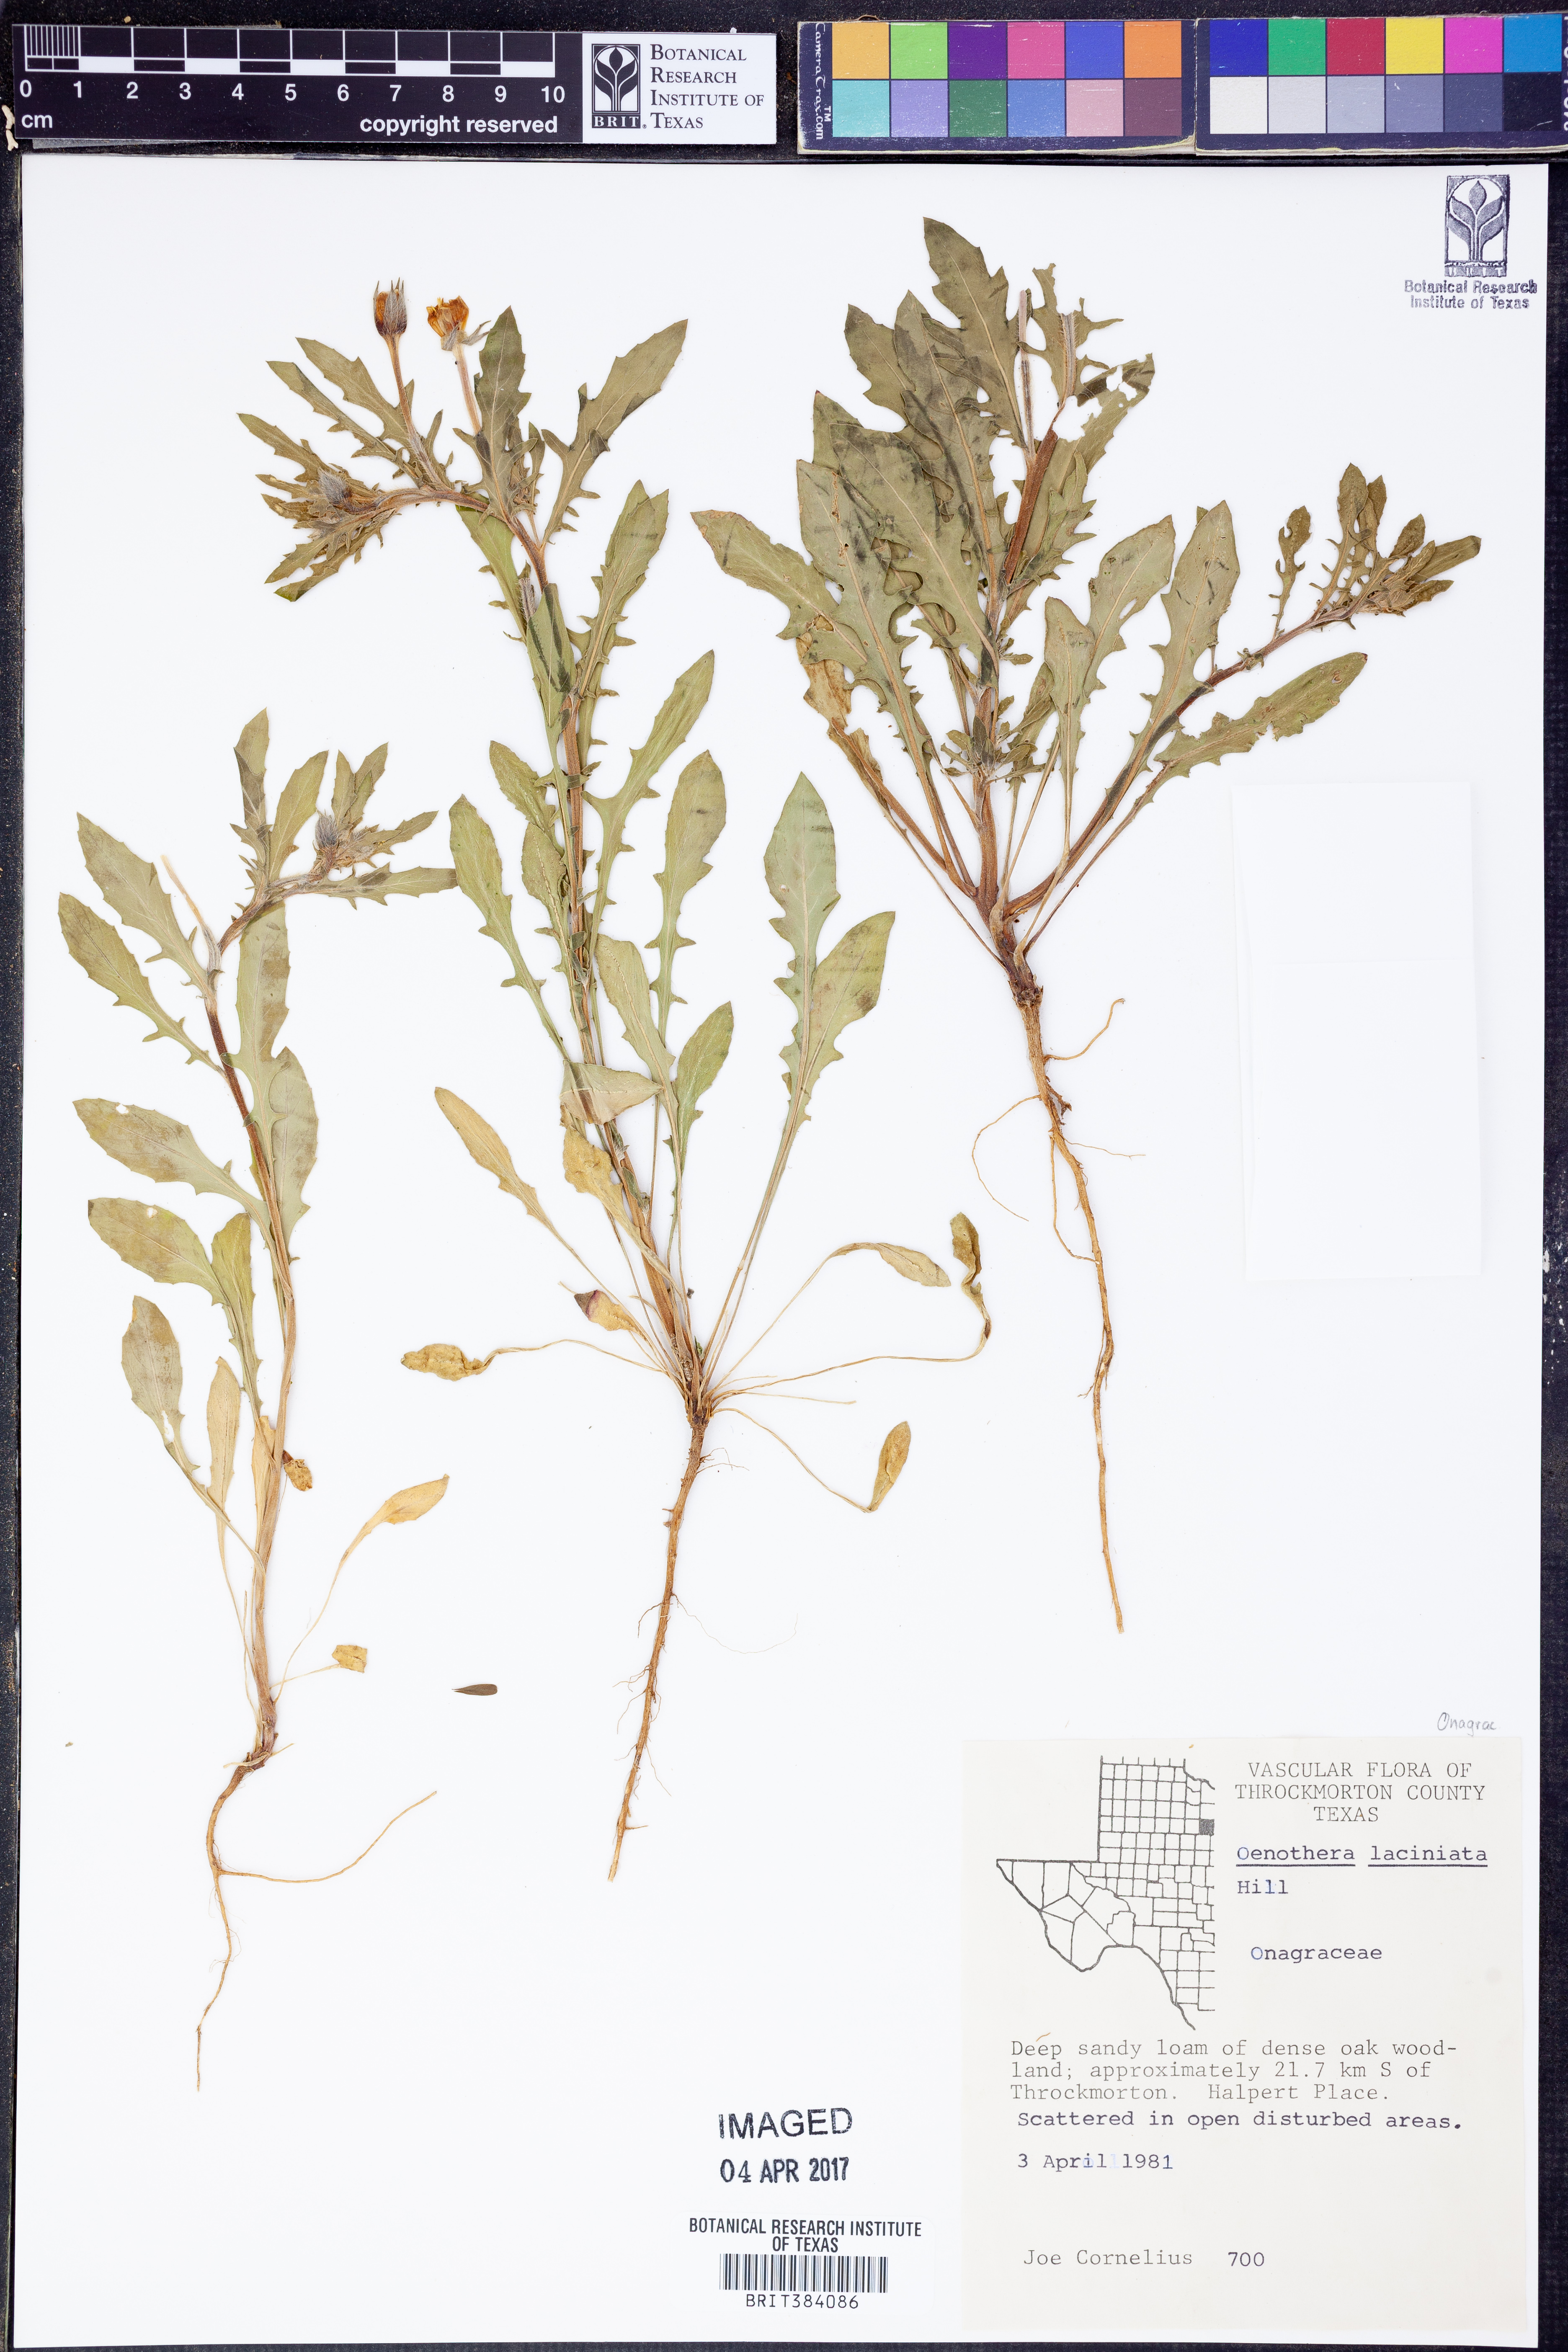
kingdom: Plantae
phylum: Tracheophyta
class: Magnoliopsida
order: Myrtales
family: Onagraceae
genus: Oenothera
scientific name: Oenothera laciniata
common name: Cut-leaved evening-primrose
